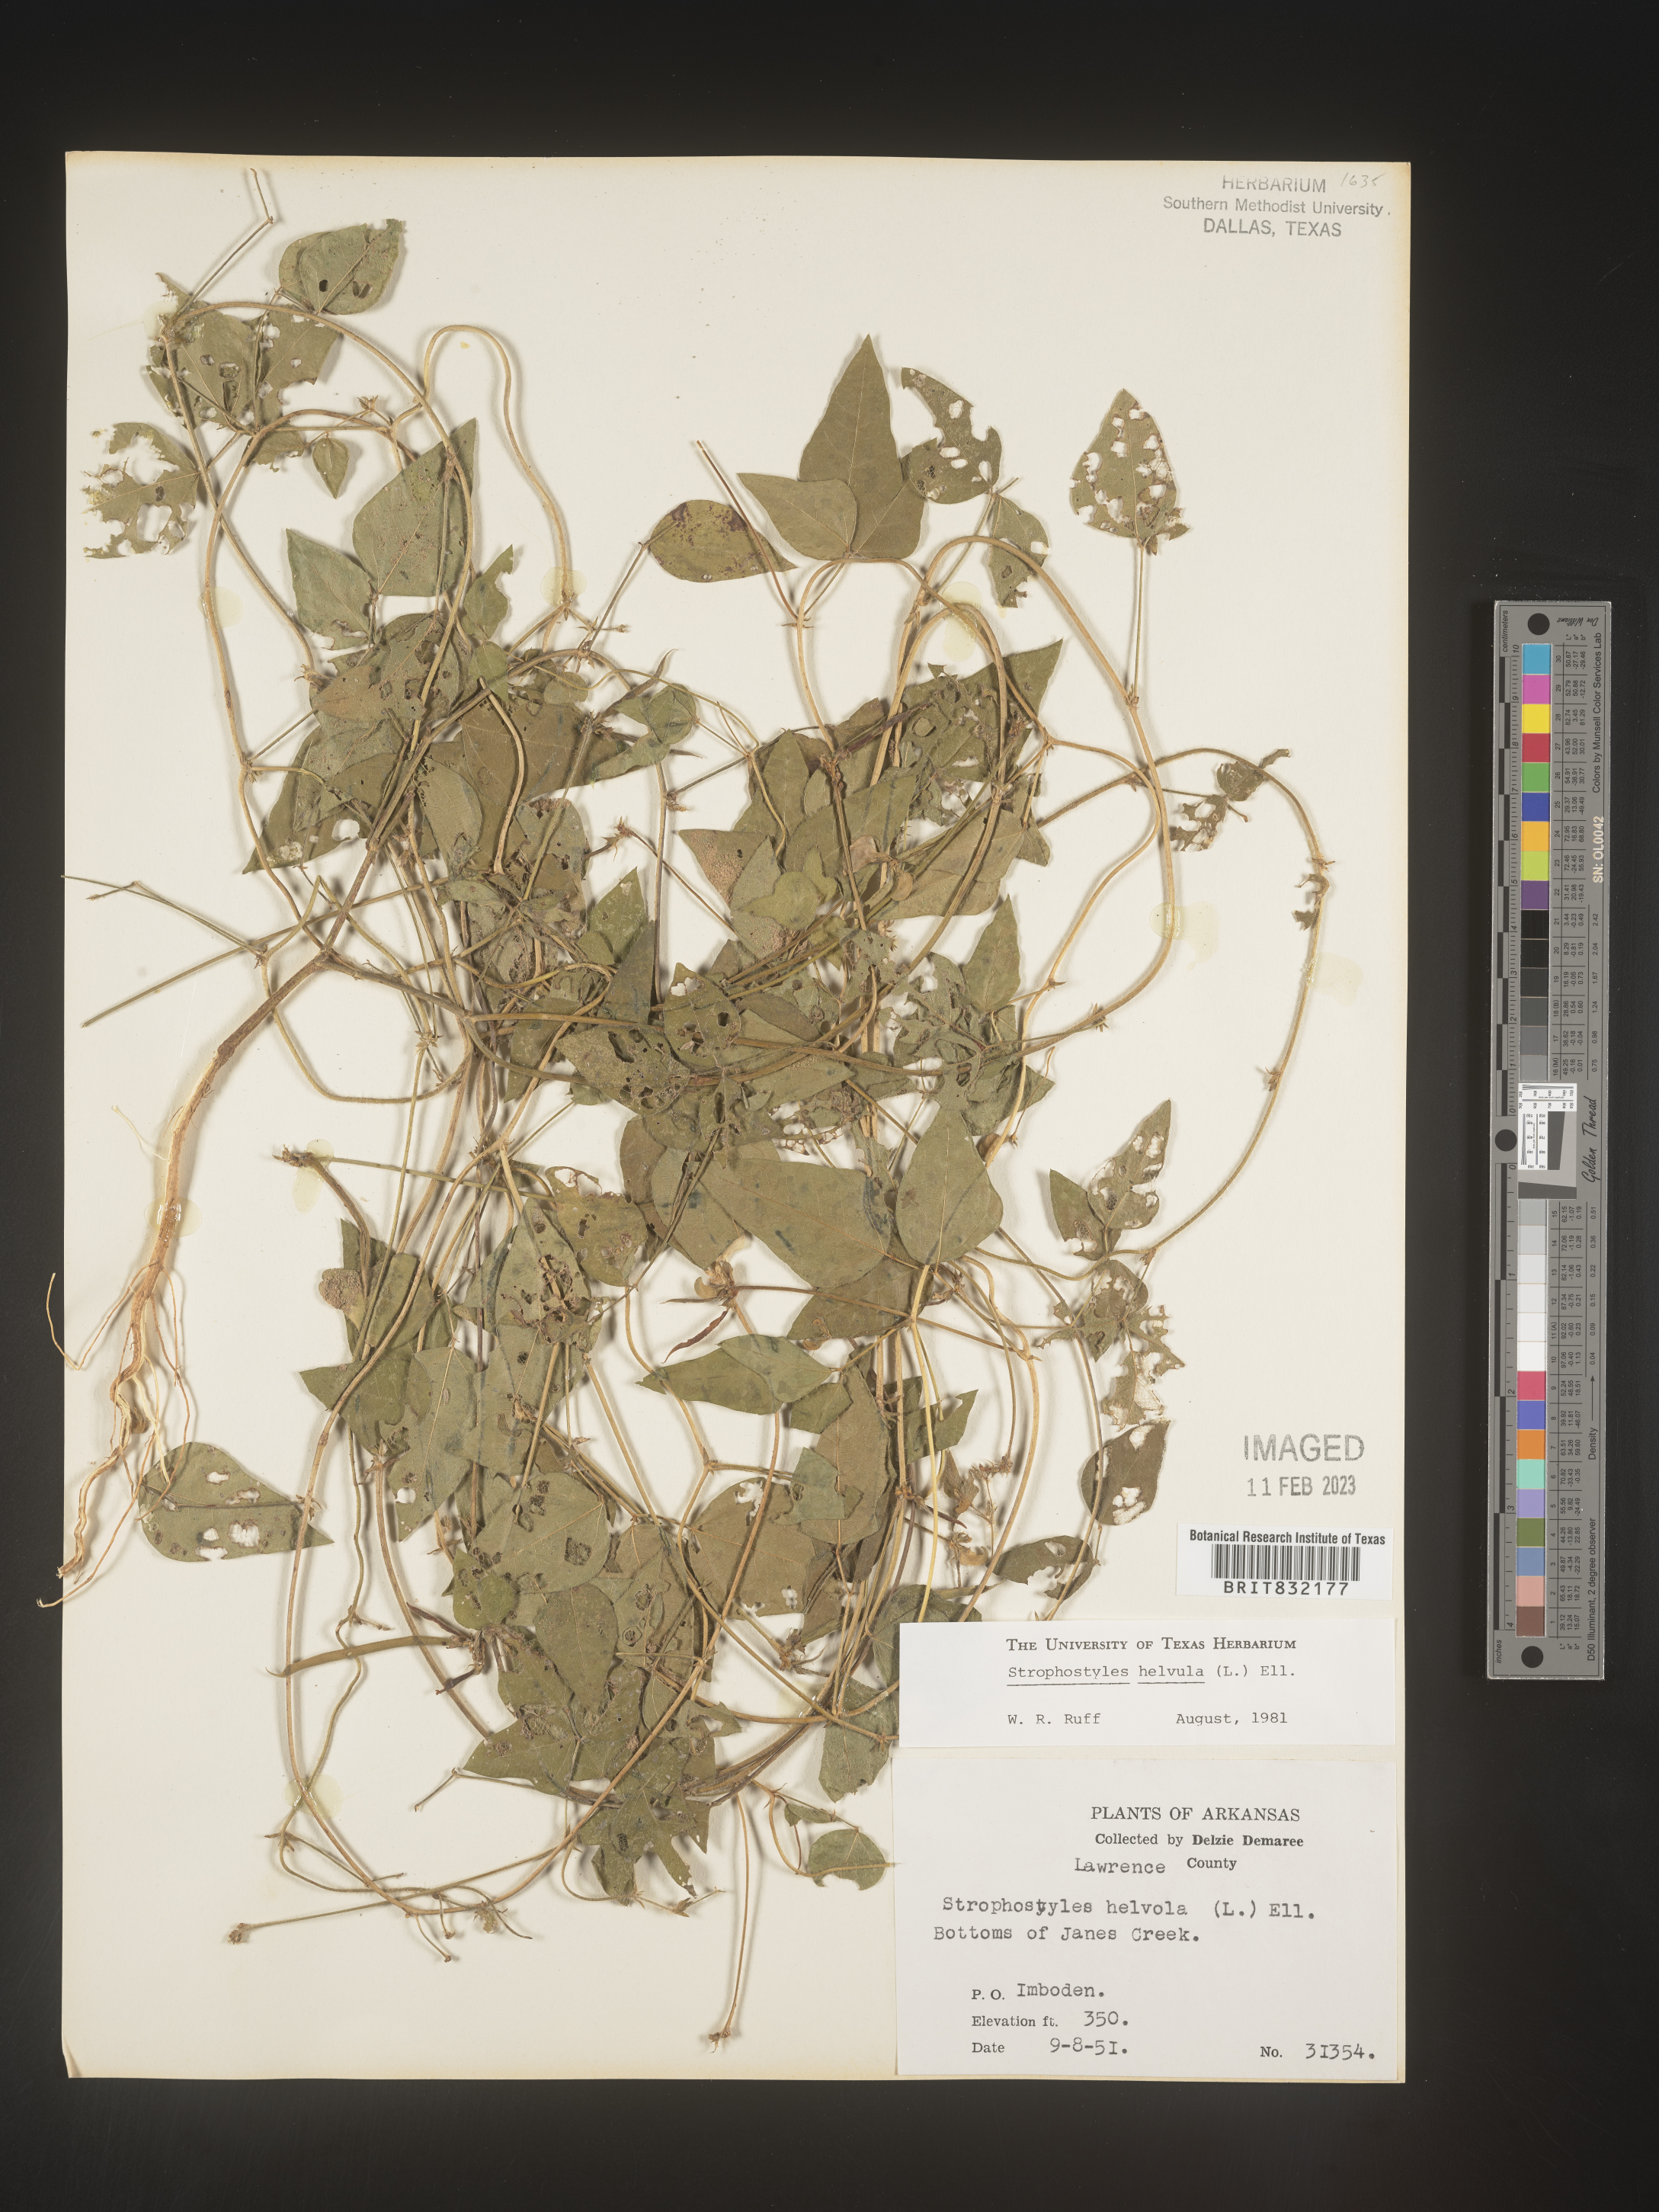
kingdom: Plantae
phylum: Tracheophyta
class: Magnoliopsida
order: Fabales
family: Fabaceae
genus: Strophostyles
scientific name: Strophostyles helvola
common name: Trailing wild bean
